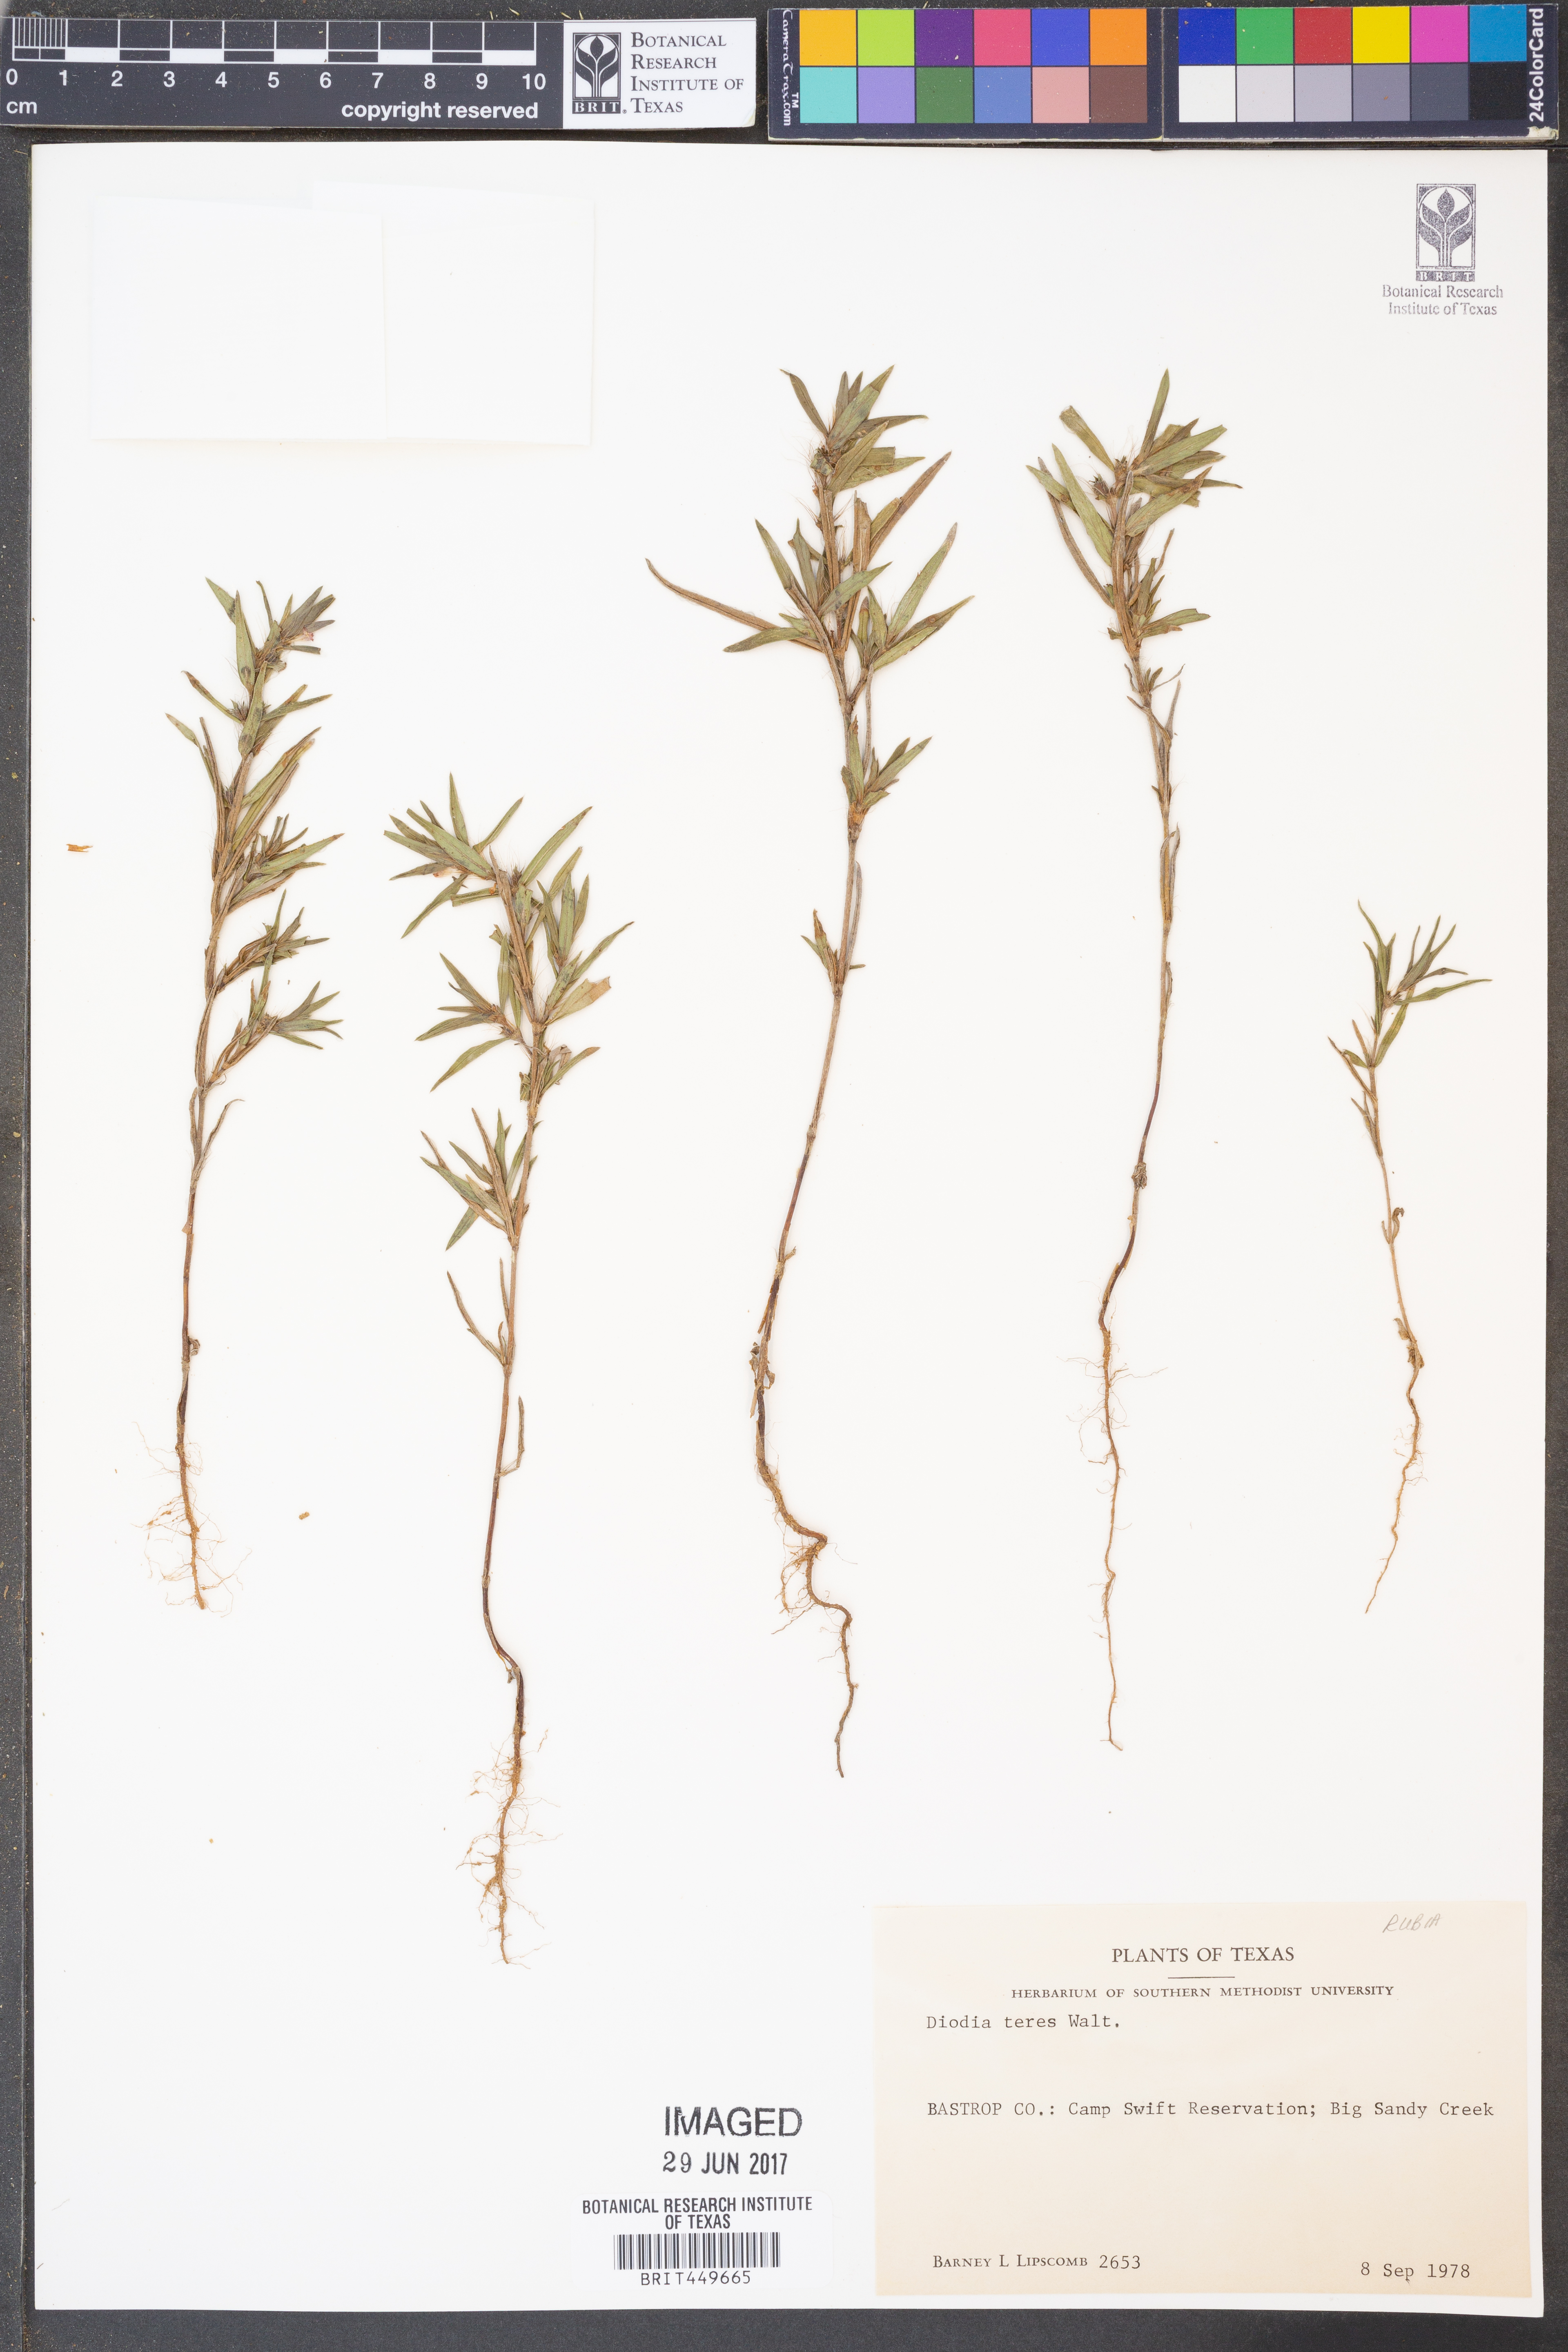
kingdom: Plantae
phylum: Tracheophyta
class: Magnoliopsida
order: Gentianales
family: Rubiaceae
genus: Hexasepalum
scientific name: Hexasepalum teres
